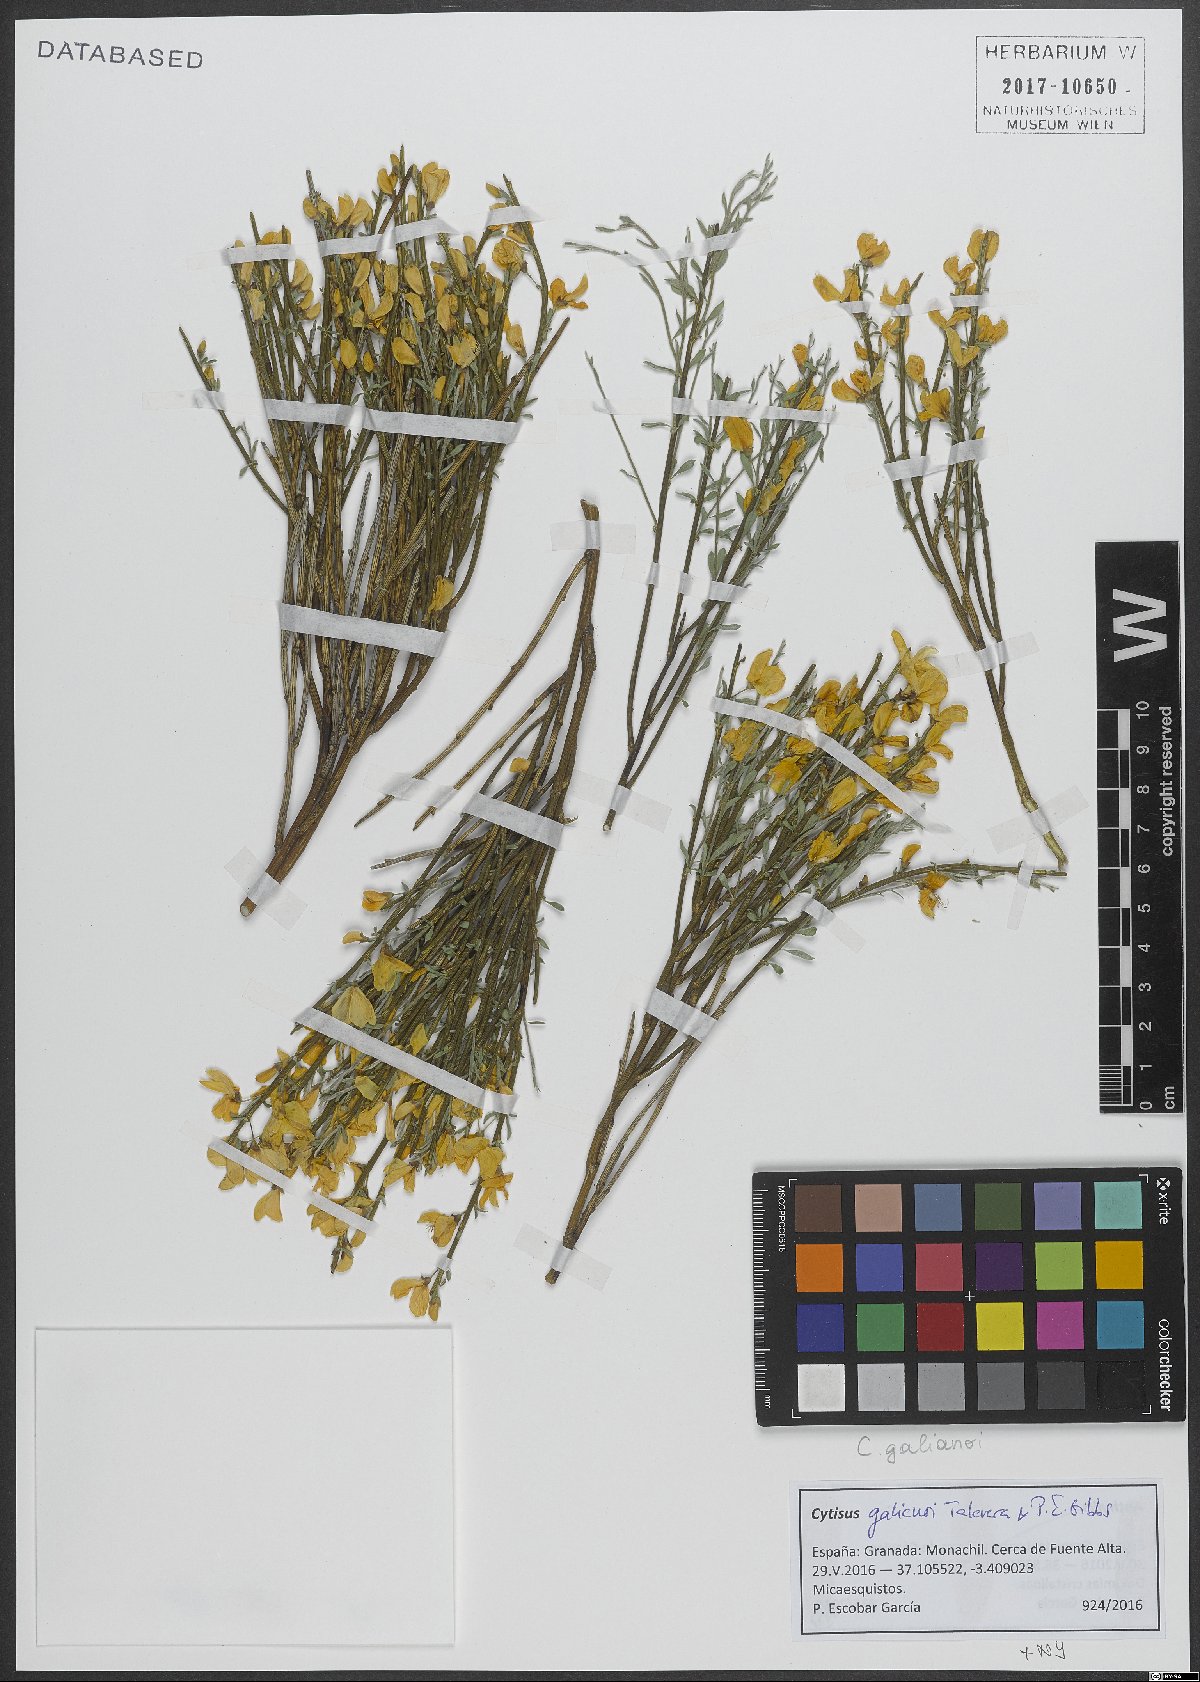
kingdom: Plantae
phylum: Tracheophyta
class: Magnoliopsida
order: Fabales
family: Fabaceae
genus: Cytisus
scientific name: Cytisus balansae
